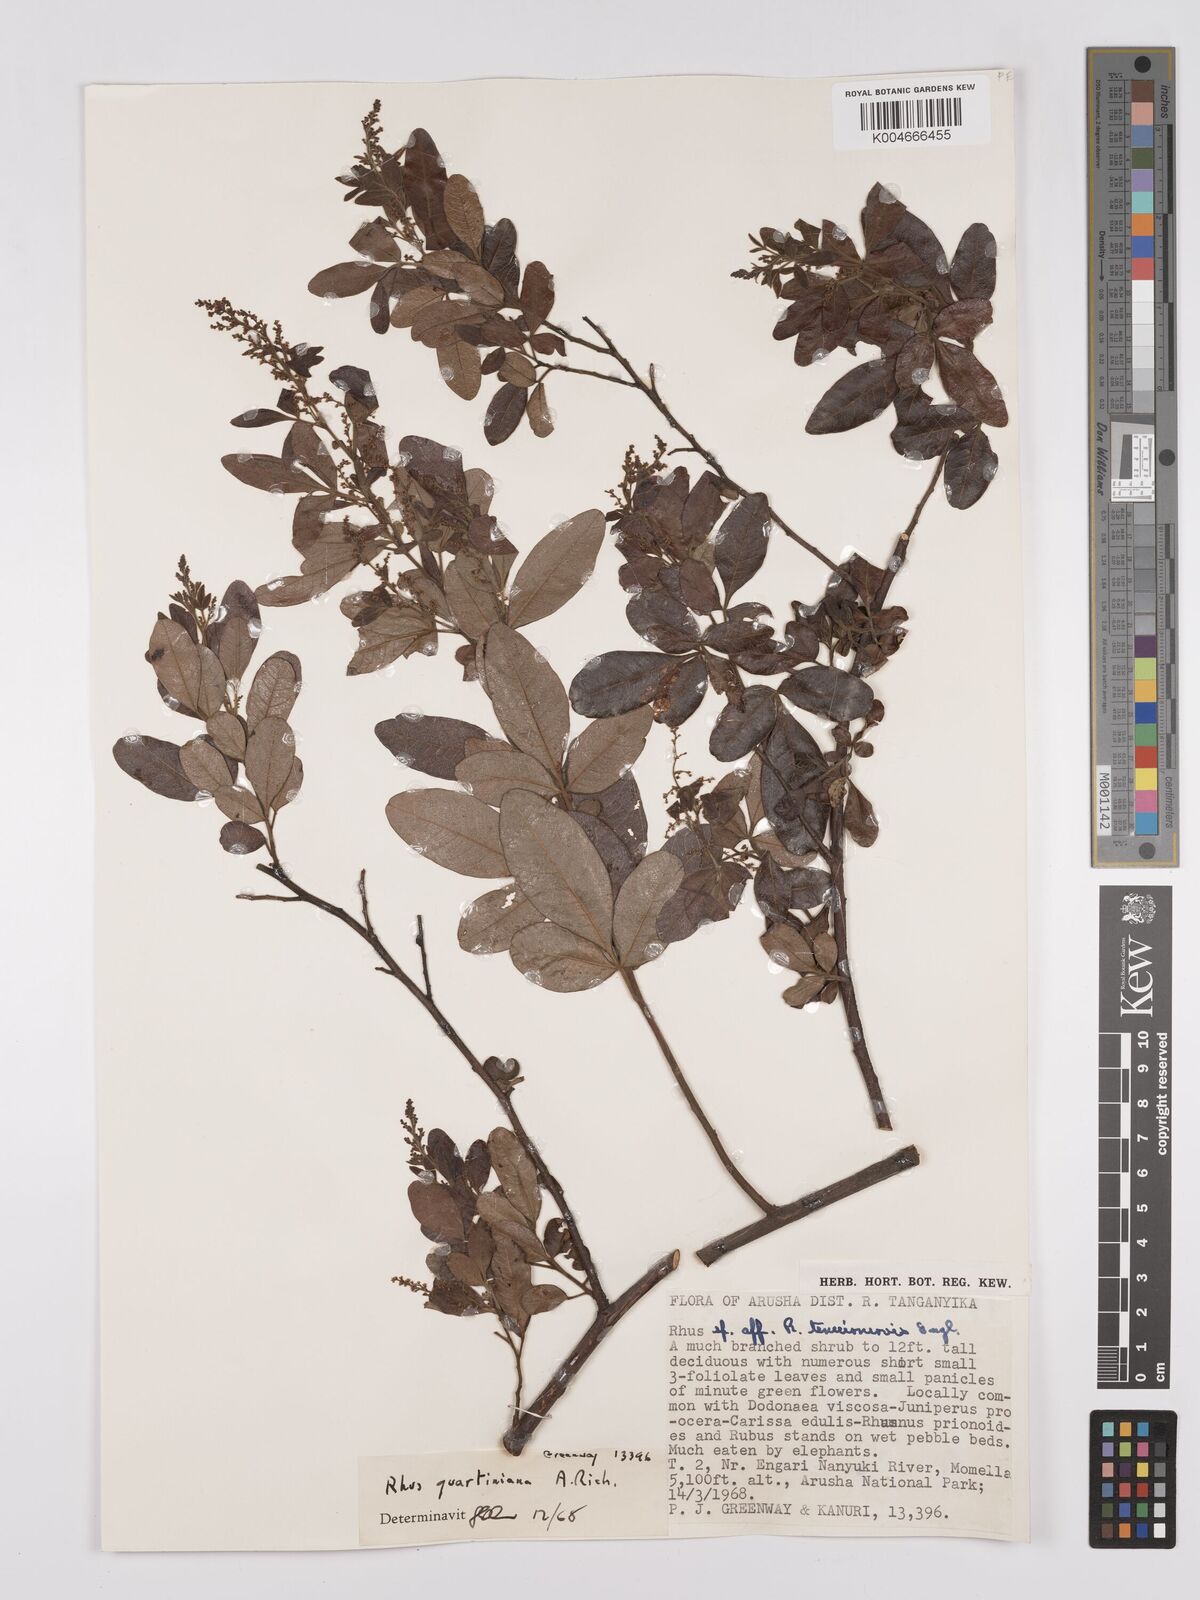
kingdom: Plantae
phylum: Tracheophyta
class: Magnoliopsida
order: Sapindales
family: Anacardiaceae
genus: Searsia
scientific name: Searsia quartiniana
